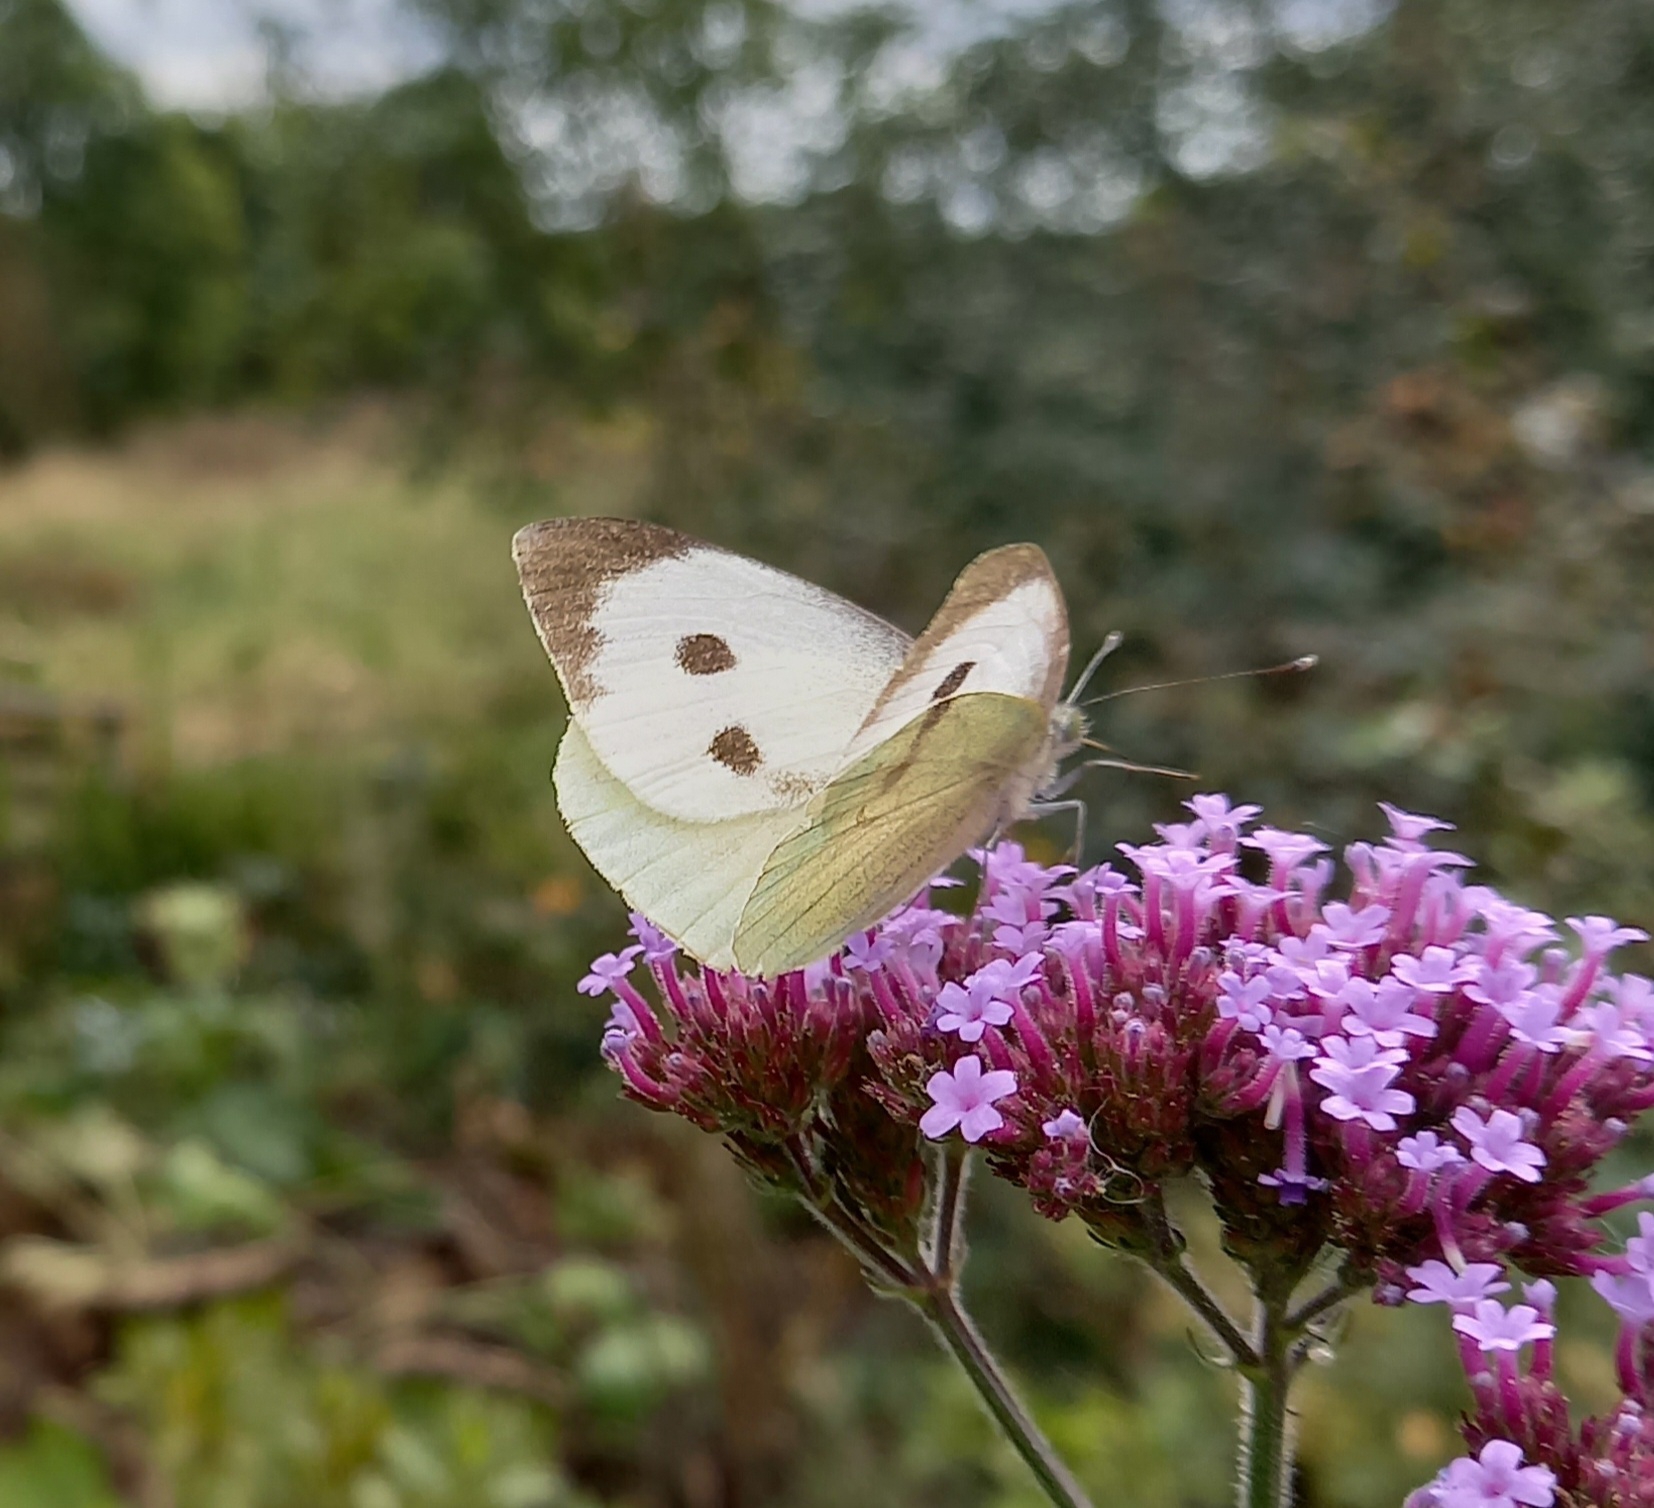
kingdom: Animalia
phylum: Arthropoda
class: Insecta
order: Lepidoptera
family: Pieridae
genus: Pieris
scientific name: Pieris brassicae
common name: Stor kålsommerfugl
